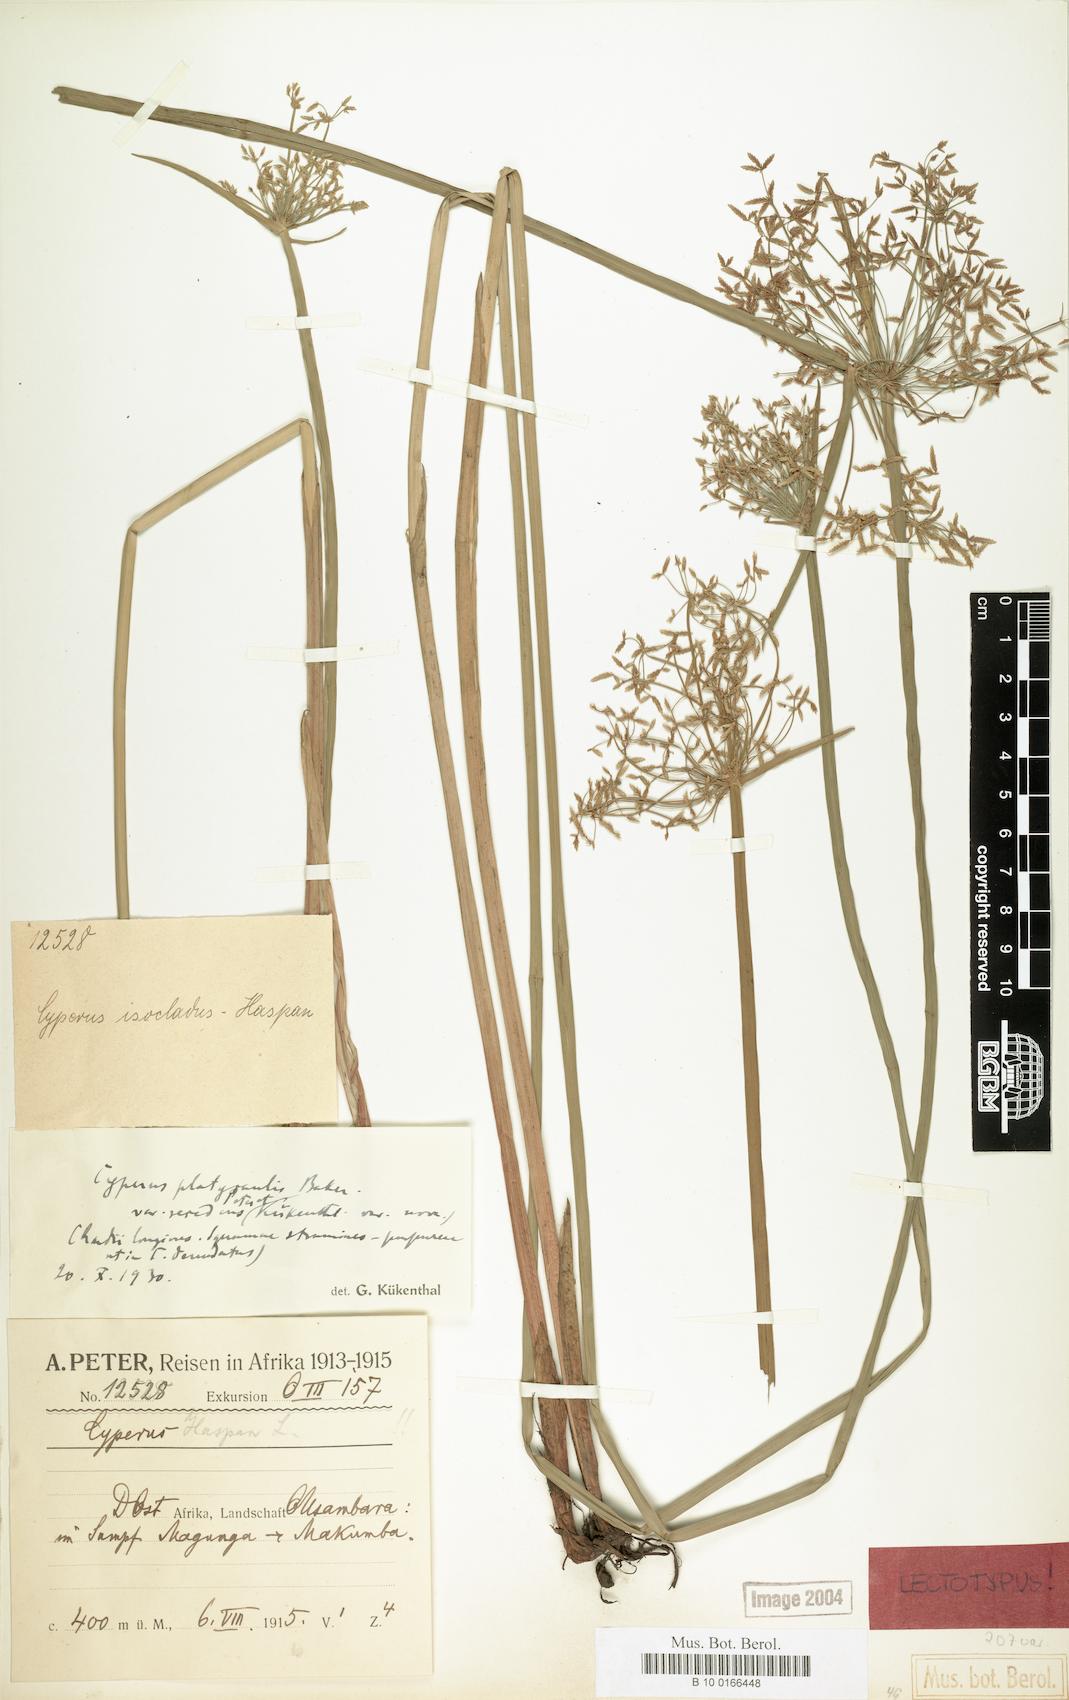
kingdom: Plantae
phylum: Tracheophyta
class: Liliopsida
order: Poales
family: Cyperaceae
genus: Cyperus
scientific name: Cyperus denudatus
